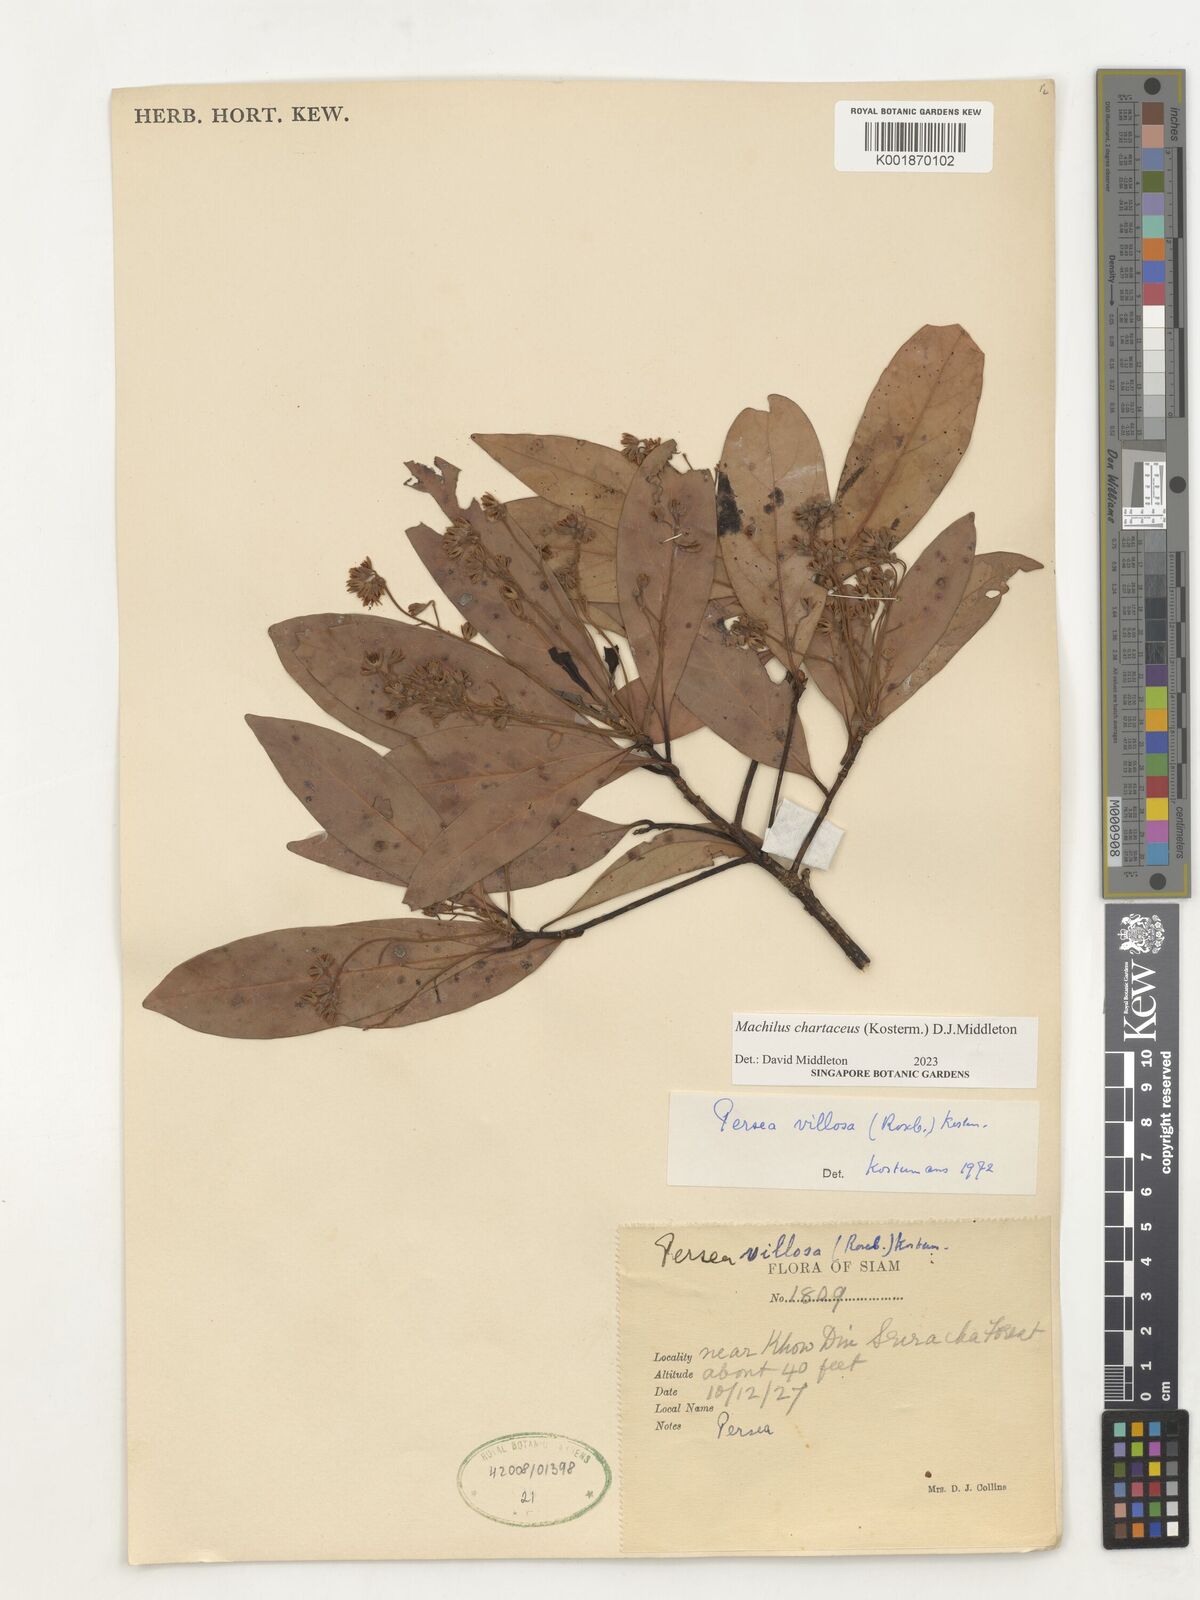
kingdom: Plantae
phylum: Tracheophyta
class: Magnoliopsida
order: Laurales
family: Lauraceae
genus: Machilus
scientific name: Machilus
